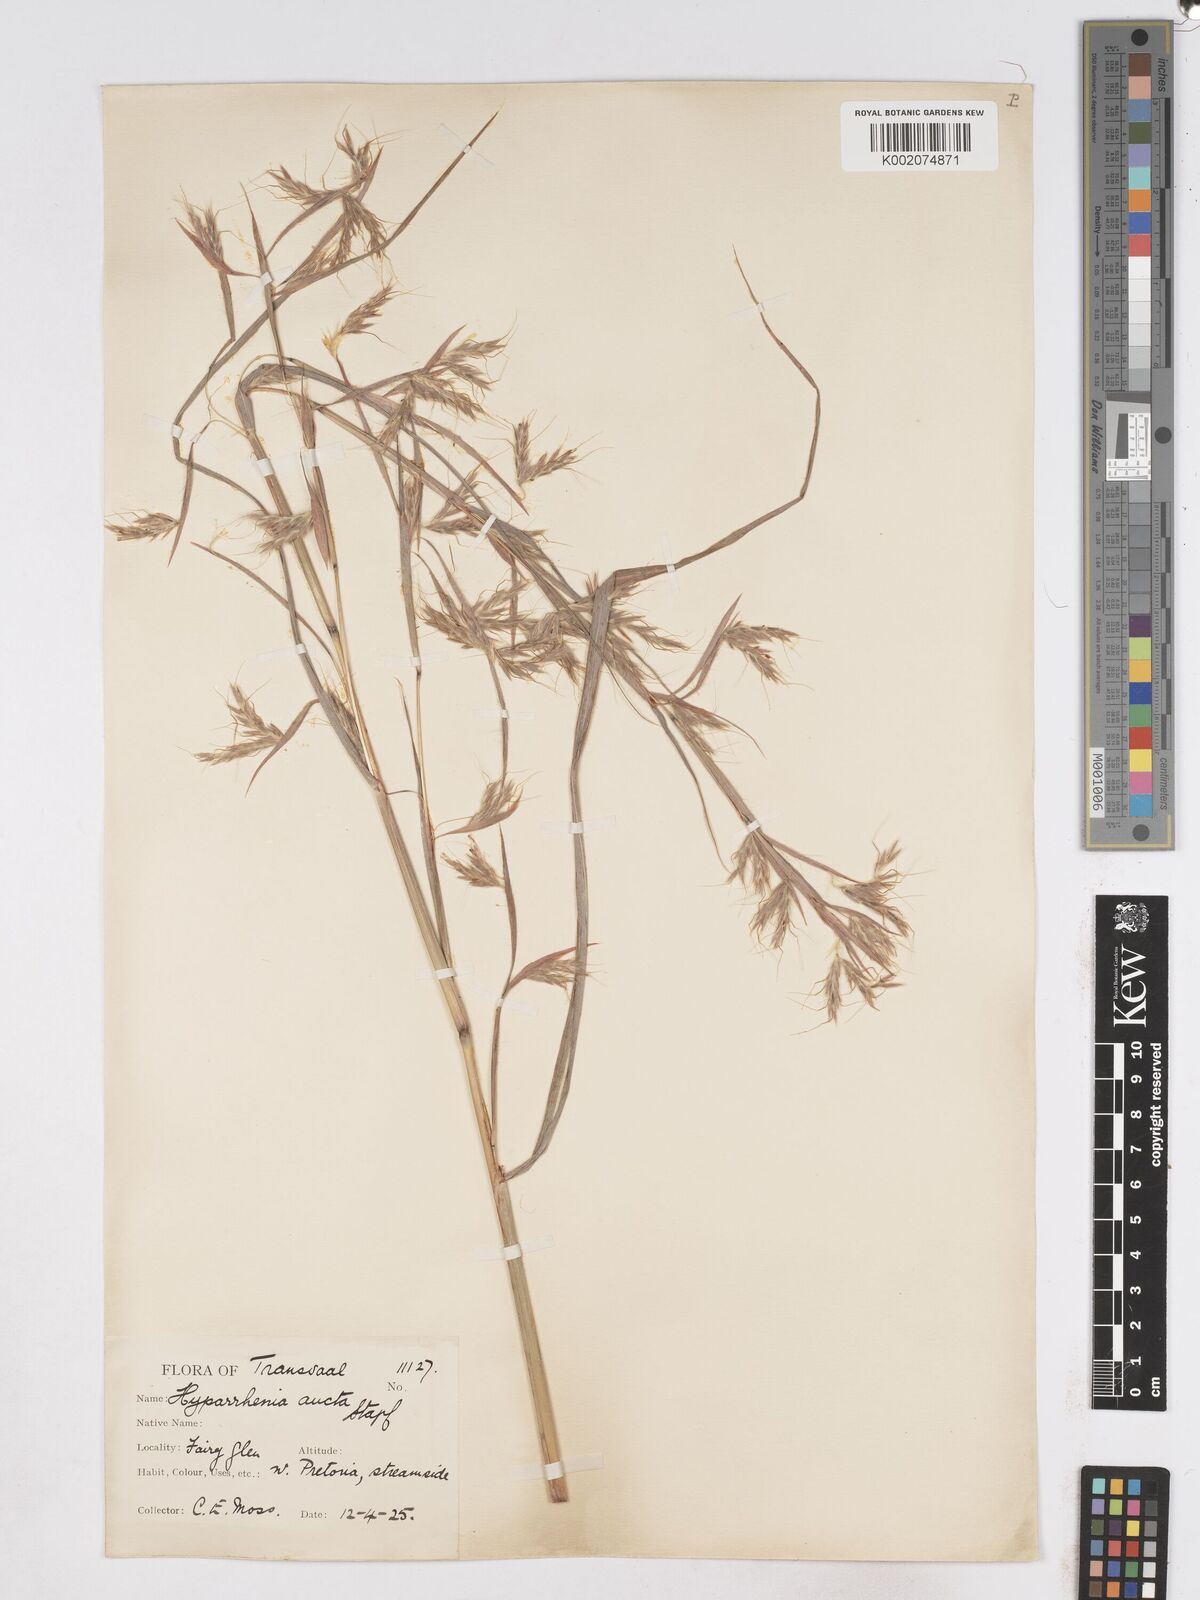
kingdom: Plantae
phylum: Tracheophyta
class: Liliopsida
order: Poales
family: Poaceae
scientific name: Poaceae
